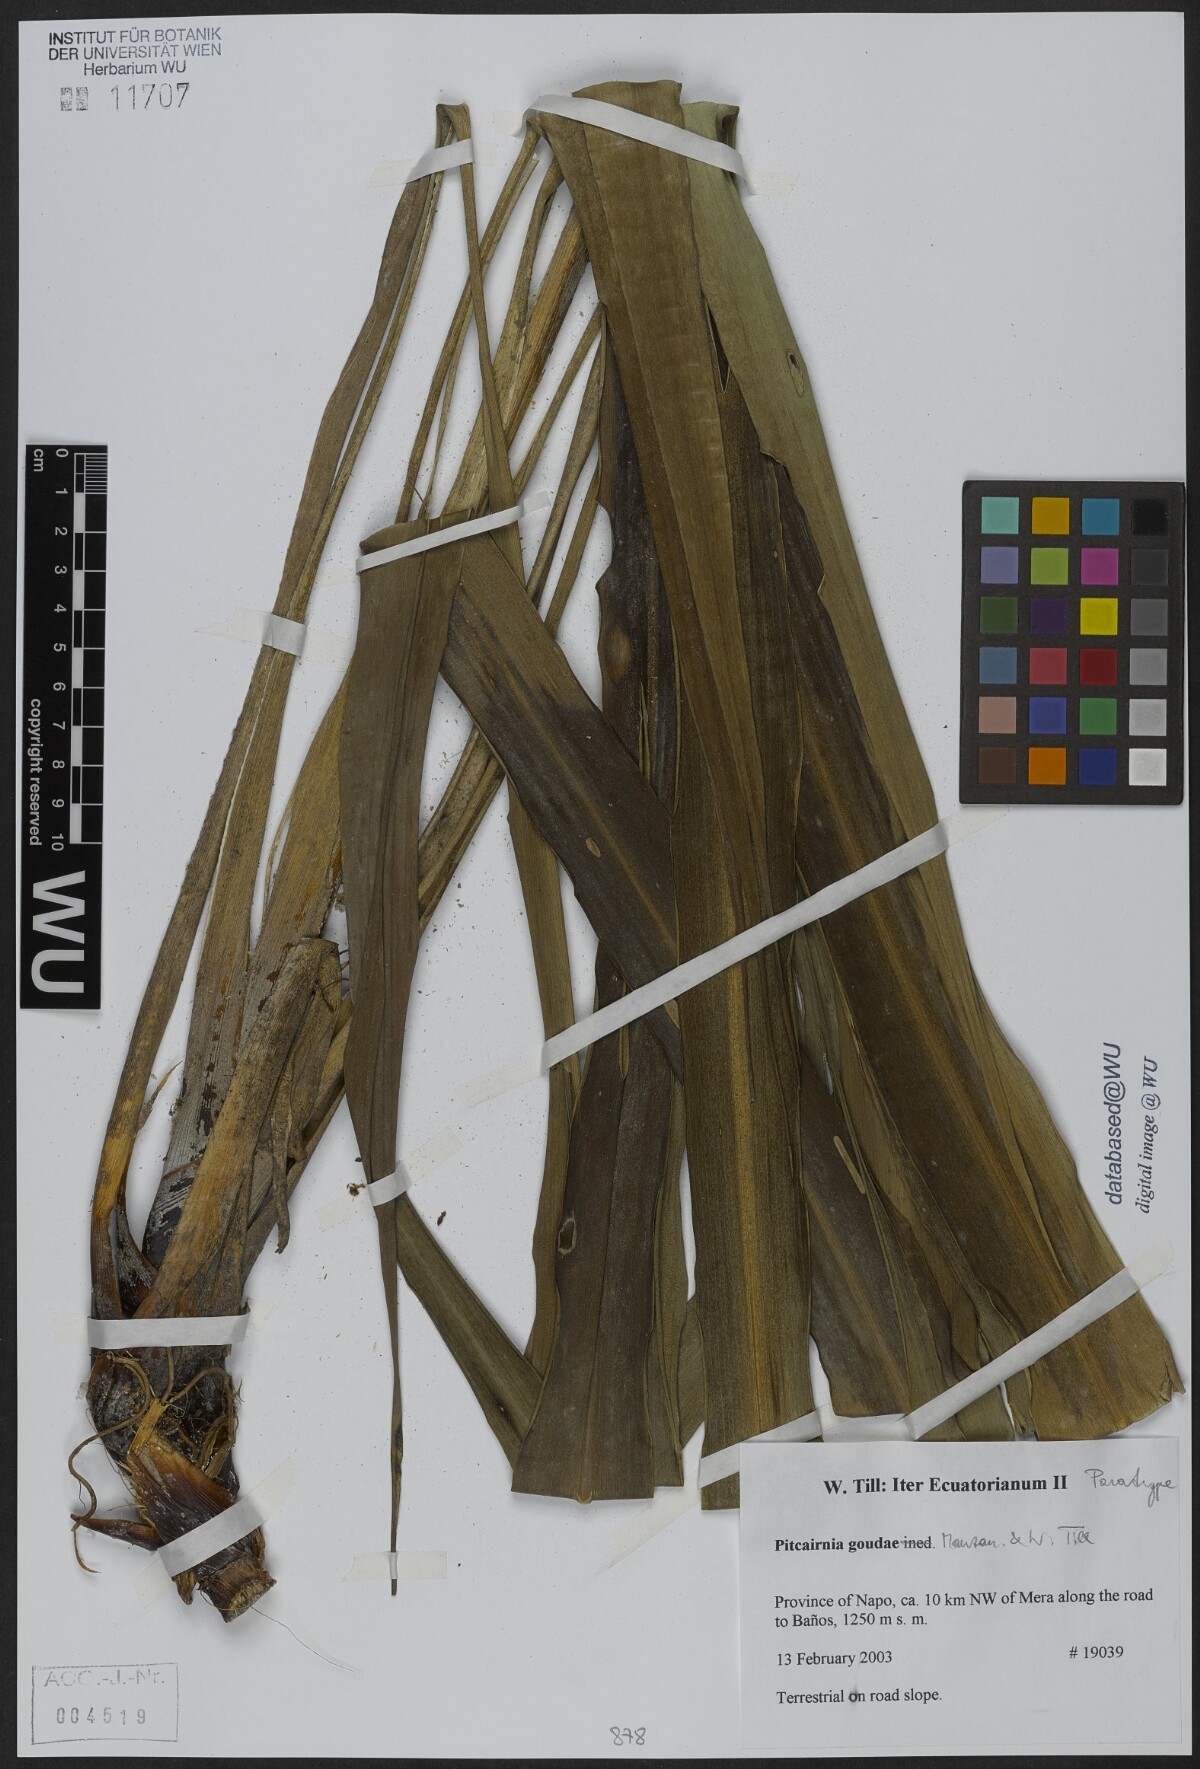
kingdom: Plantae
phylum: Tracheophyta
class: Liliopsida
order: Poales
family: Bromeliaceae
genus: Pitcairnia
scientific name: Pitcairnia goudae
